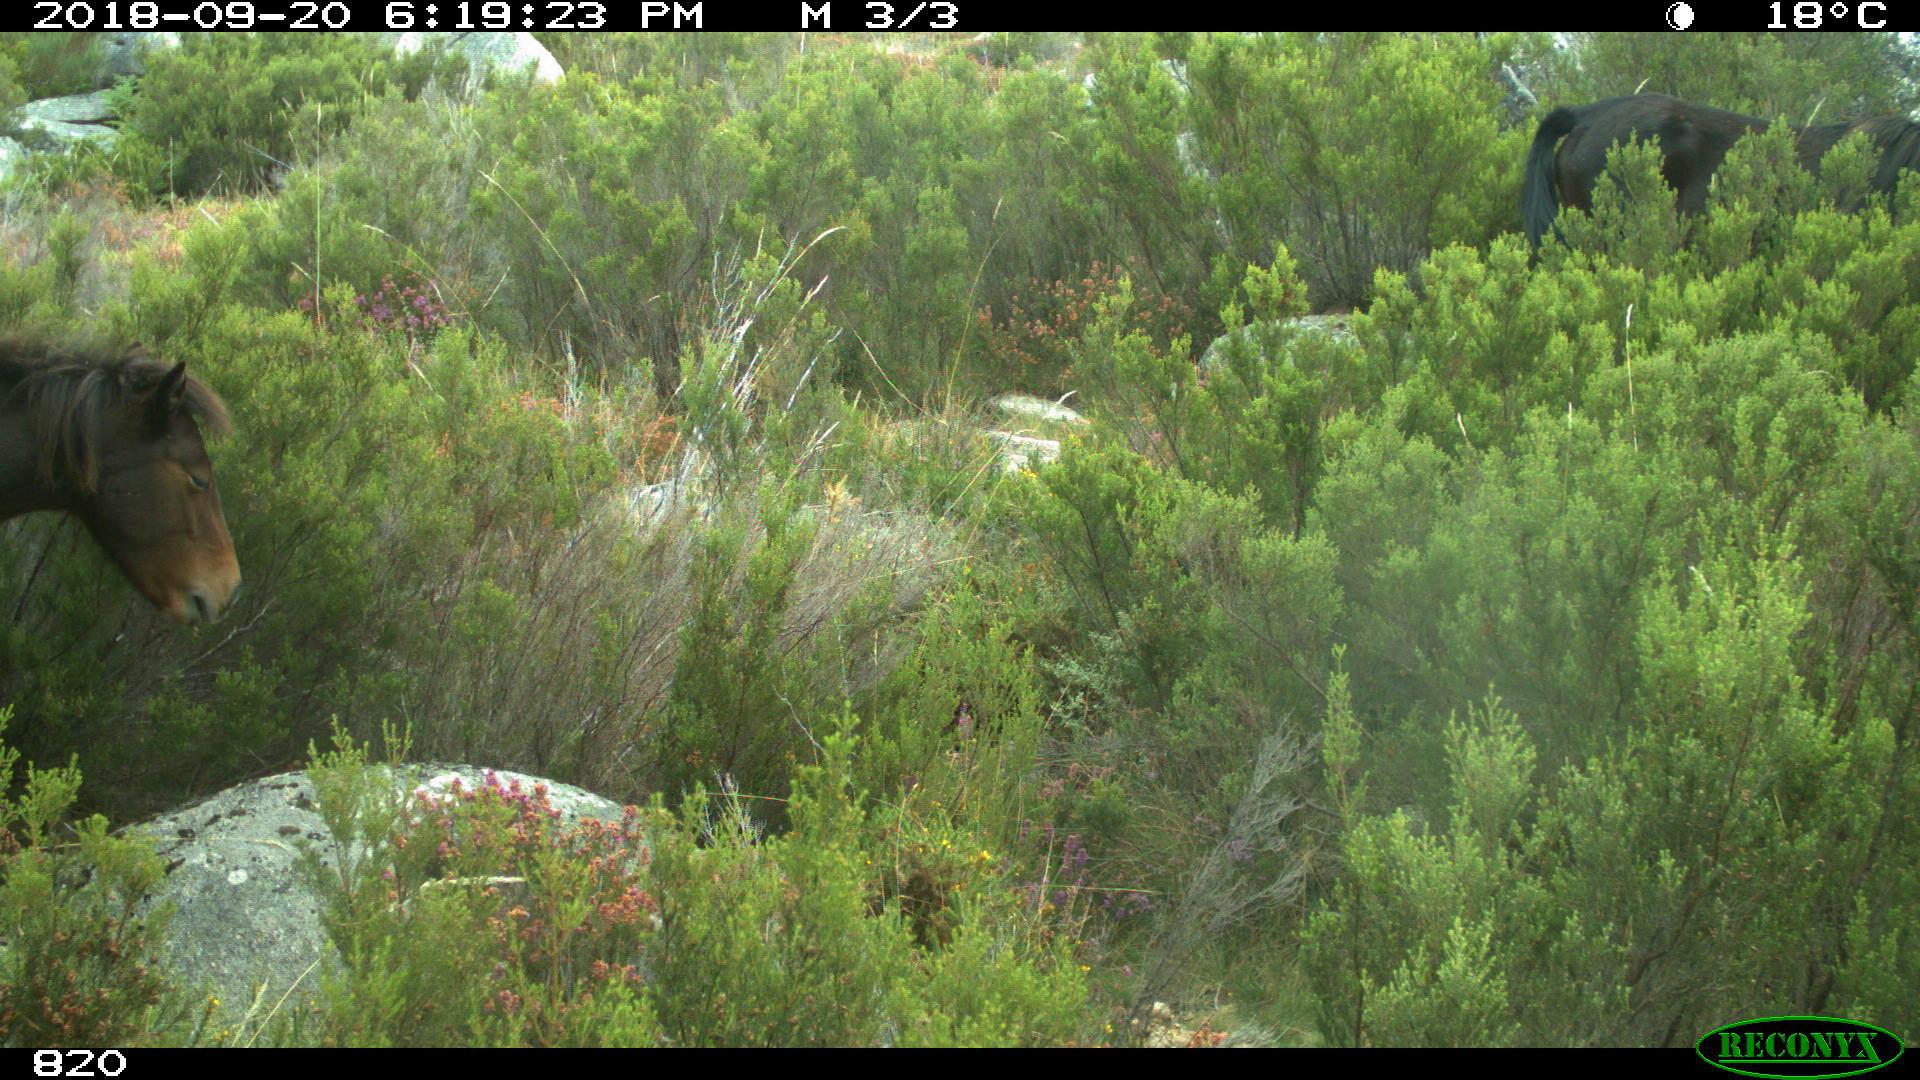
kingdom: Animalia
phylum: Chordata
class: Mammalia
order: Perissodactyla
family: Equidae
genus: Equus
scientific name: Equus caballus
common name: Horse
